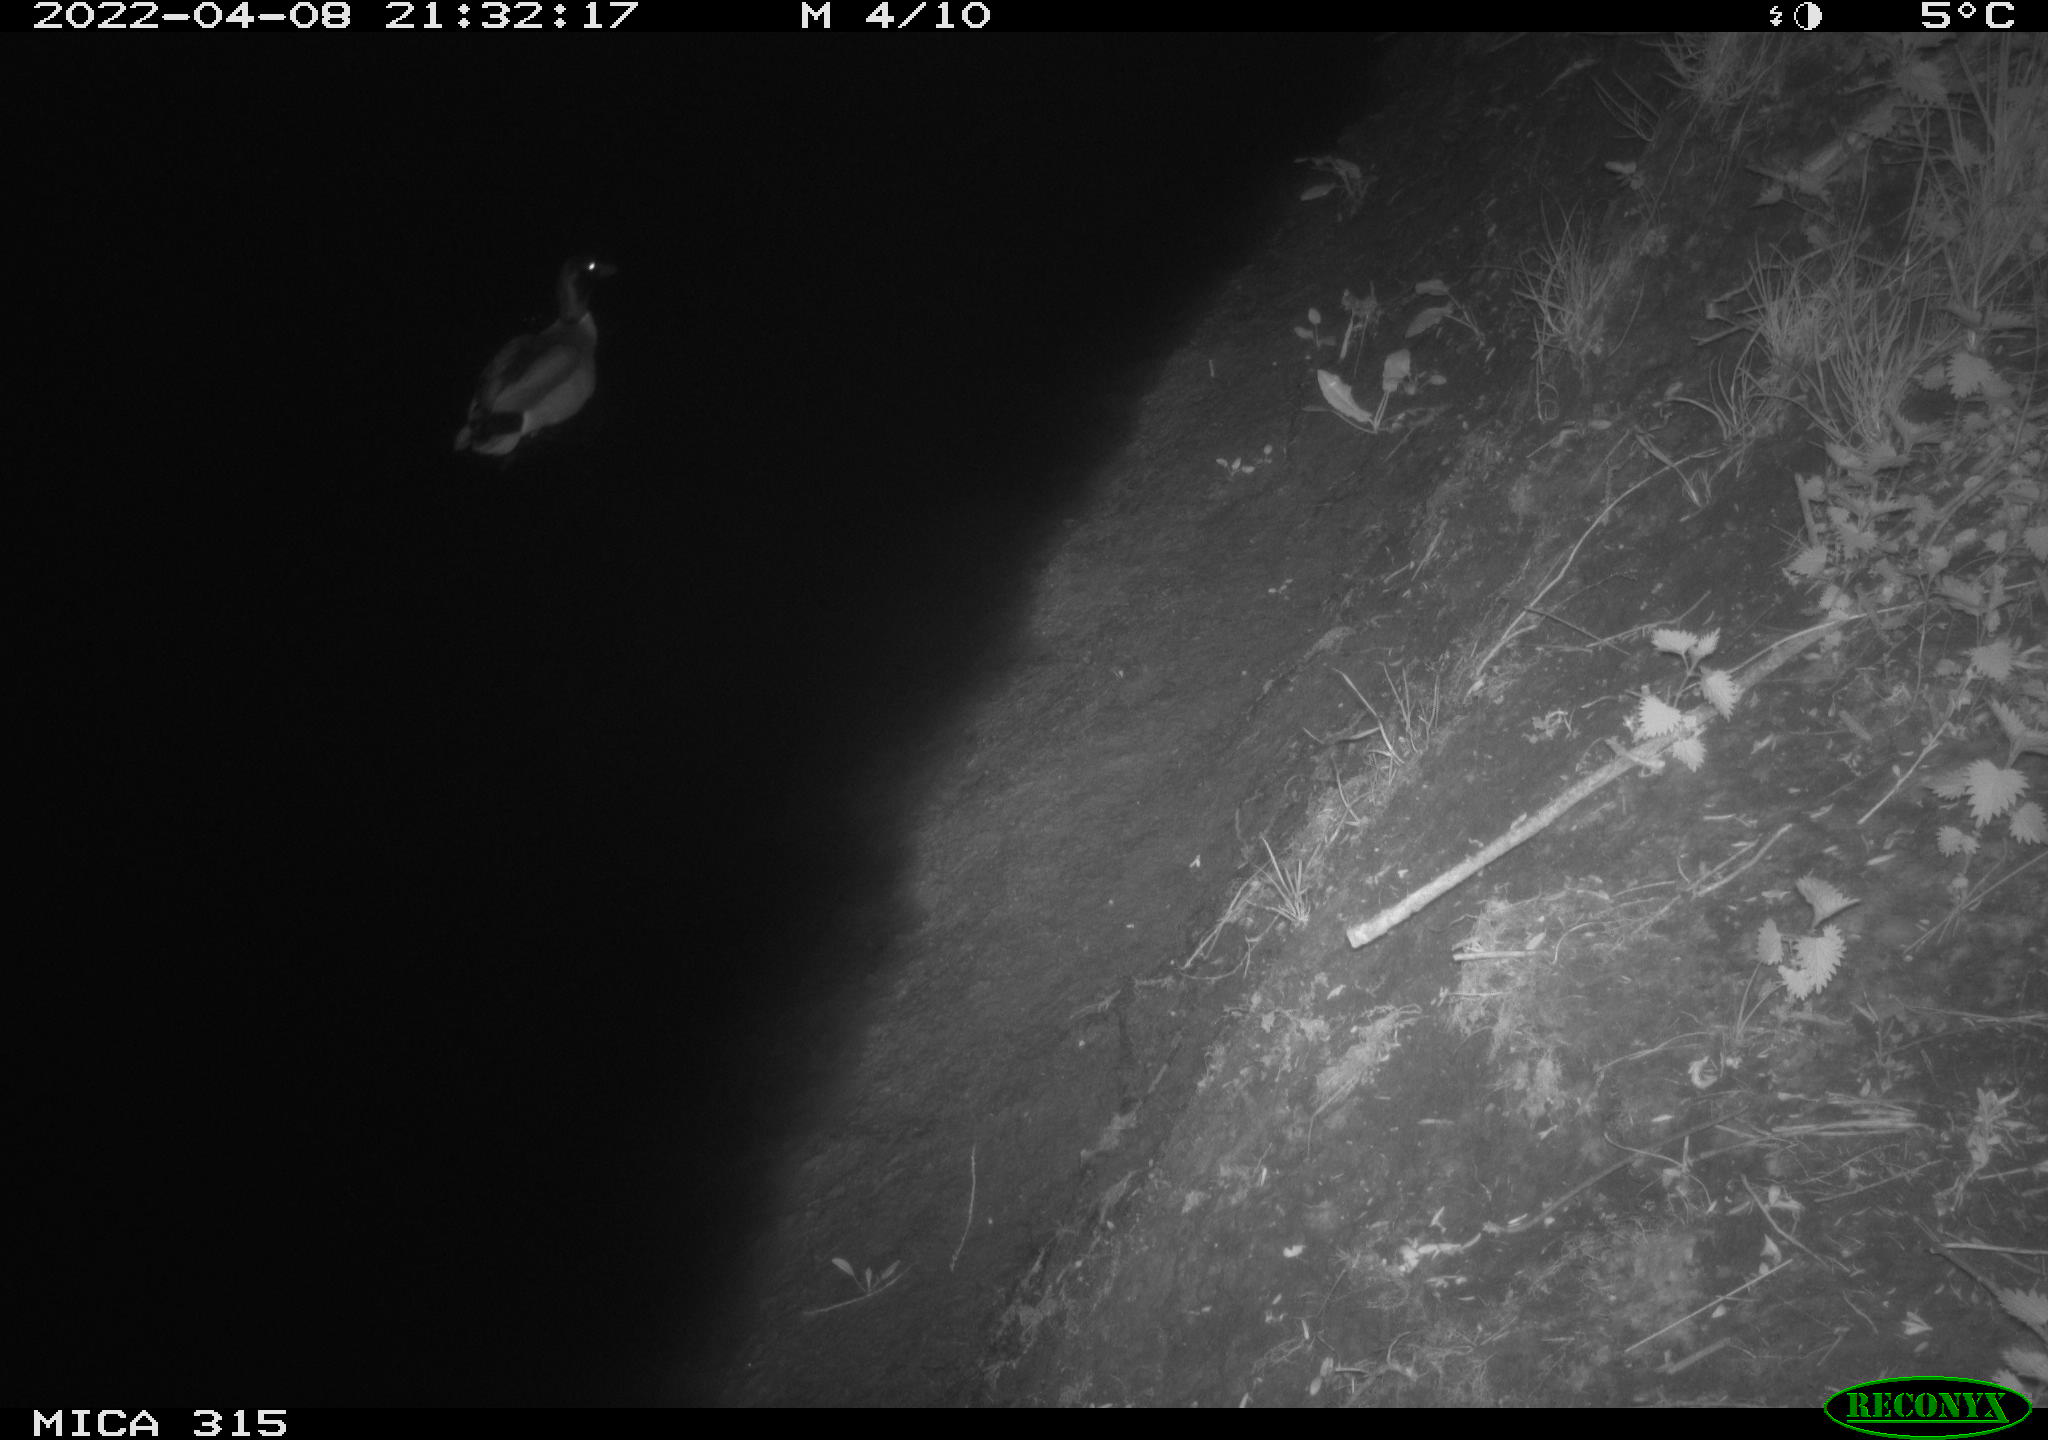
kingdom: Animalia
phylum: Chordata
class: Aves
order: Anseriformes
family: Anatidae
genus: Anas
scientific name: Anas platyrhynchos
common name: Mallard
